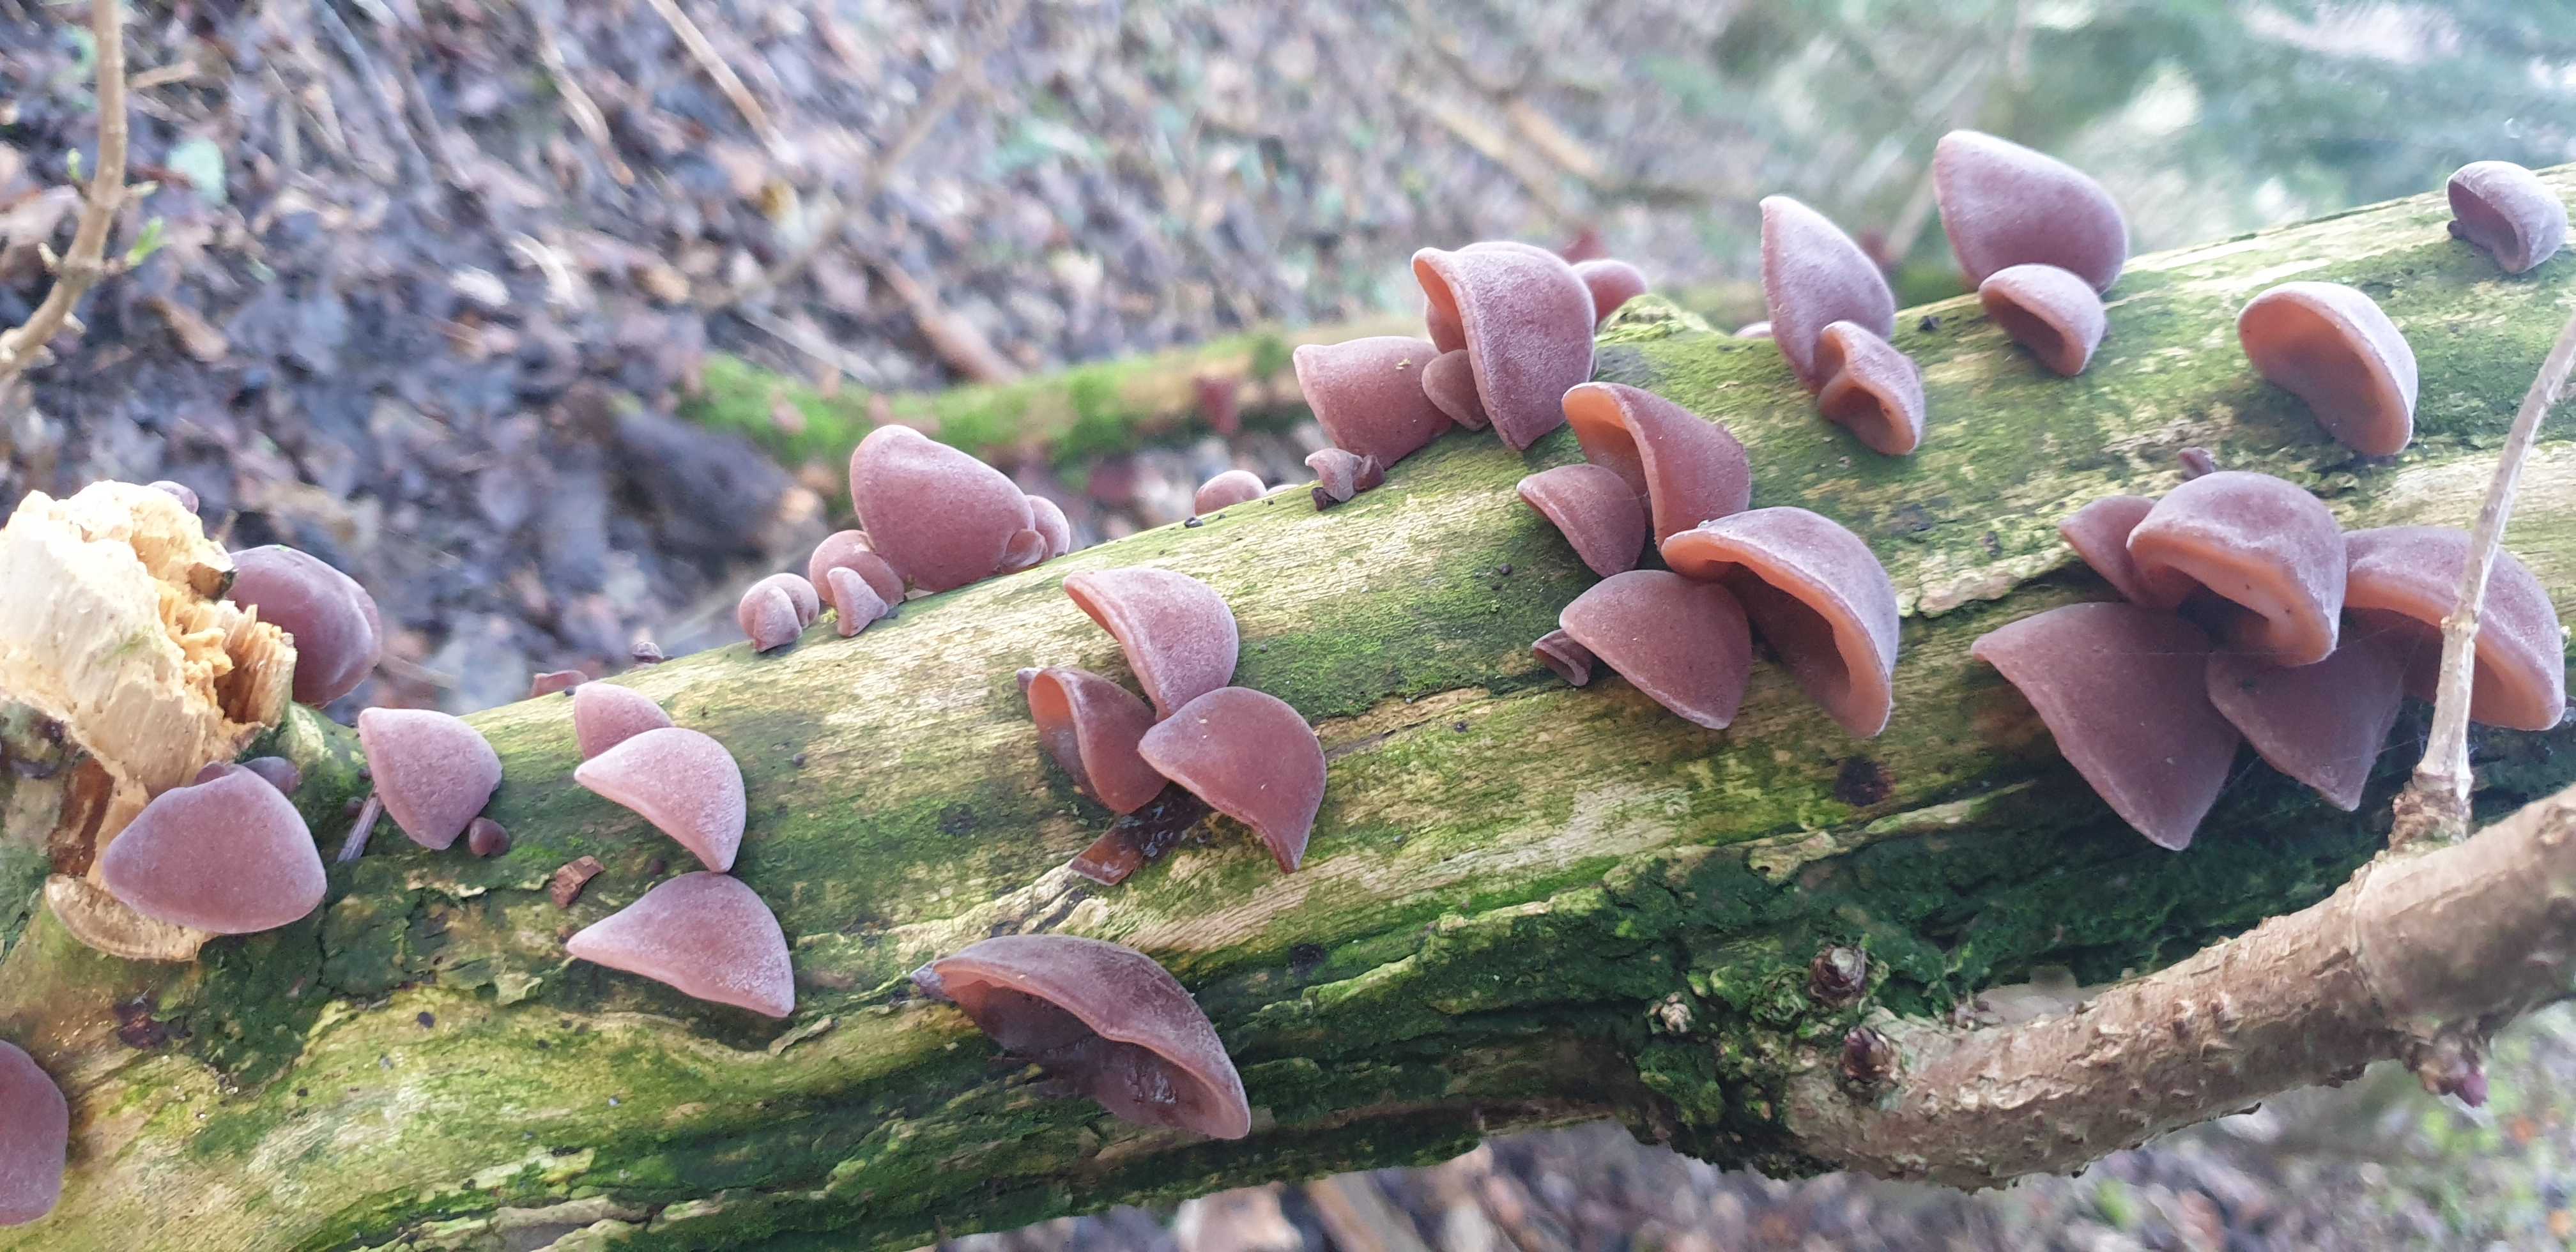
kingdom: Fungi
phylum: Basidiomycota
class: Agaricomycetes
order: Auriculariales
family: Auriculariaceae
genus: Auricularia
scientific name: Auricularia auricula-judae
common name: almindelig judasøre
